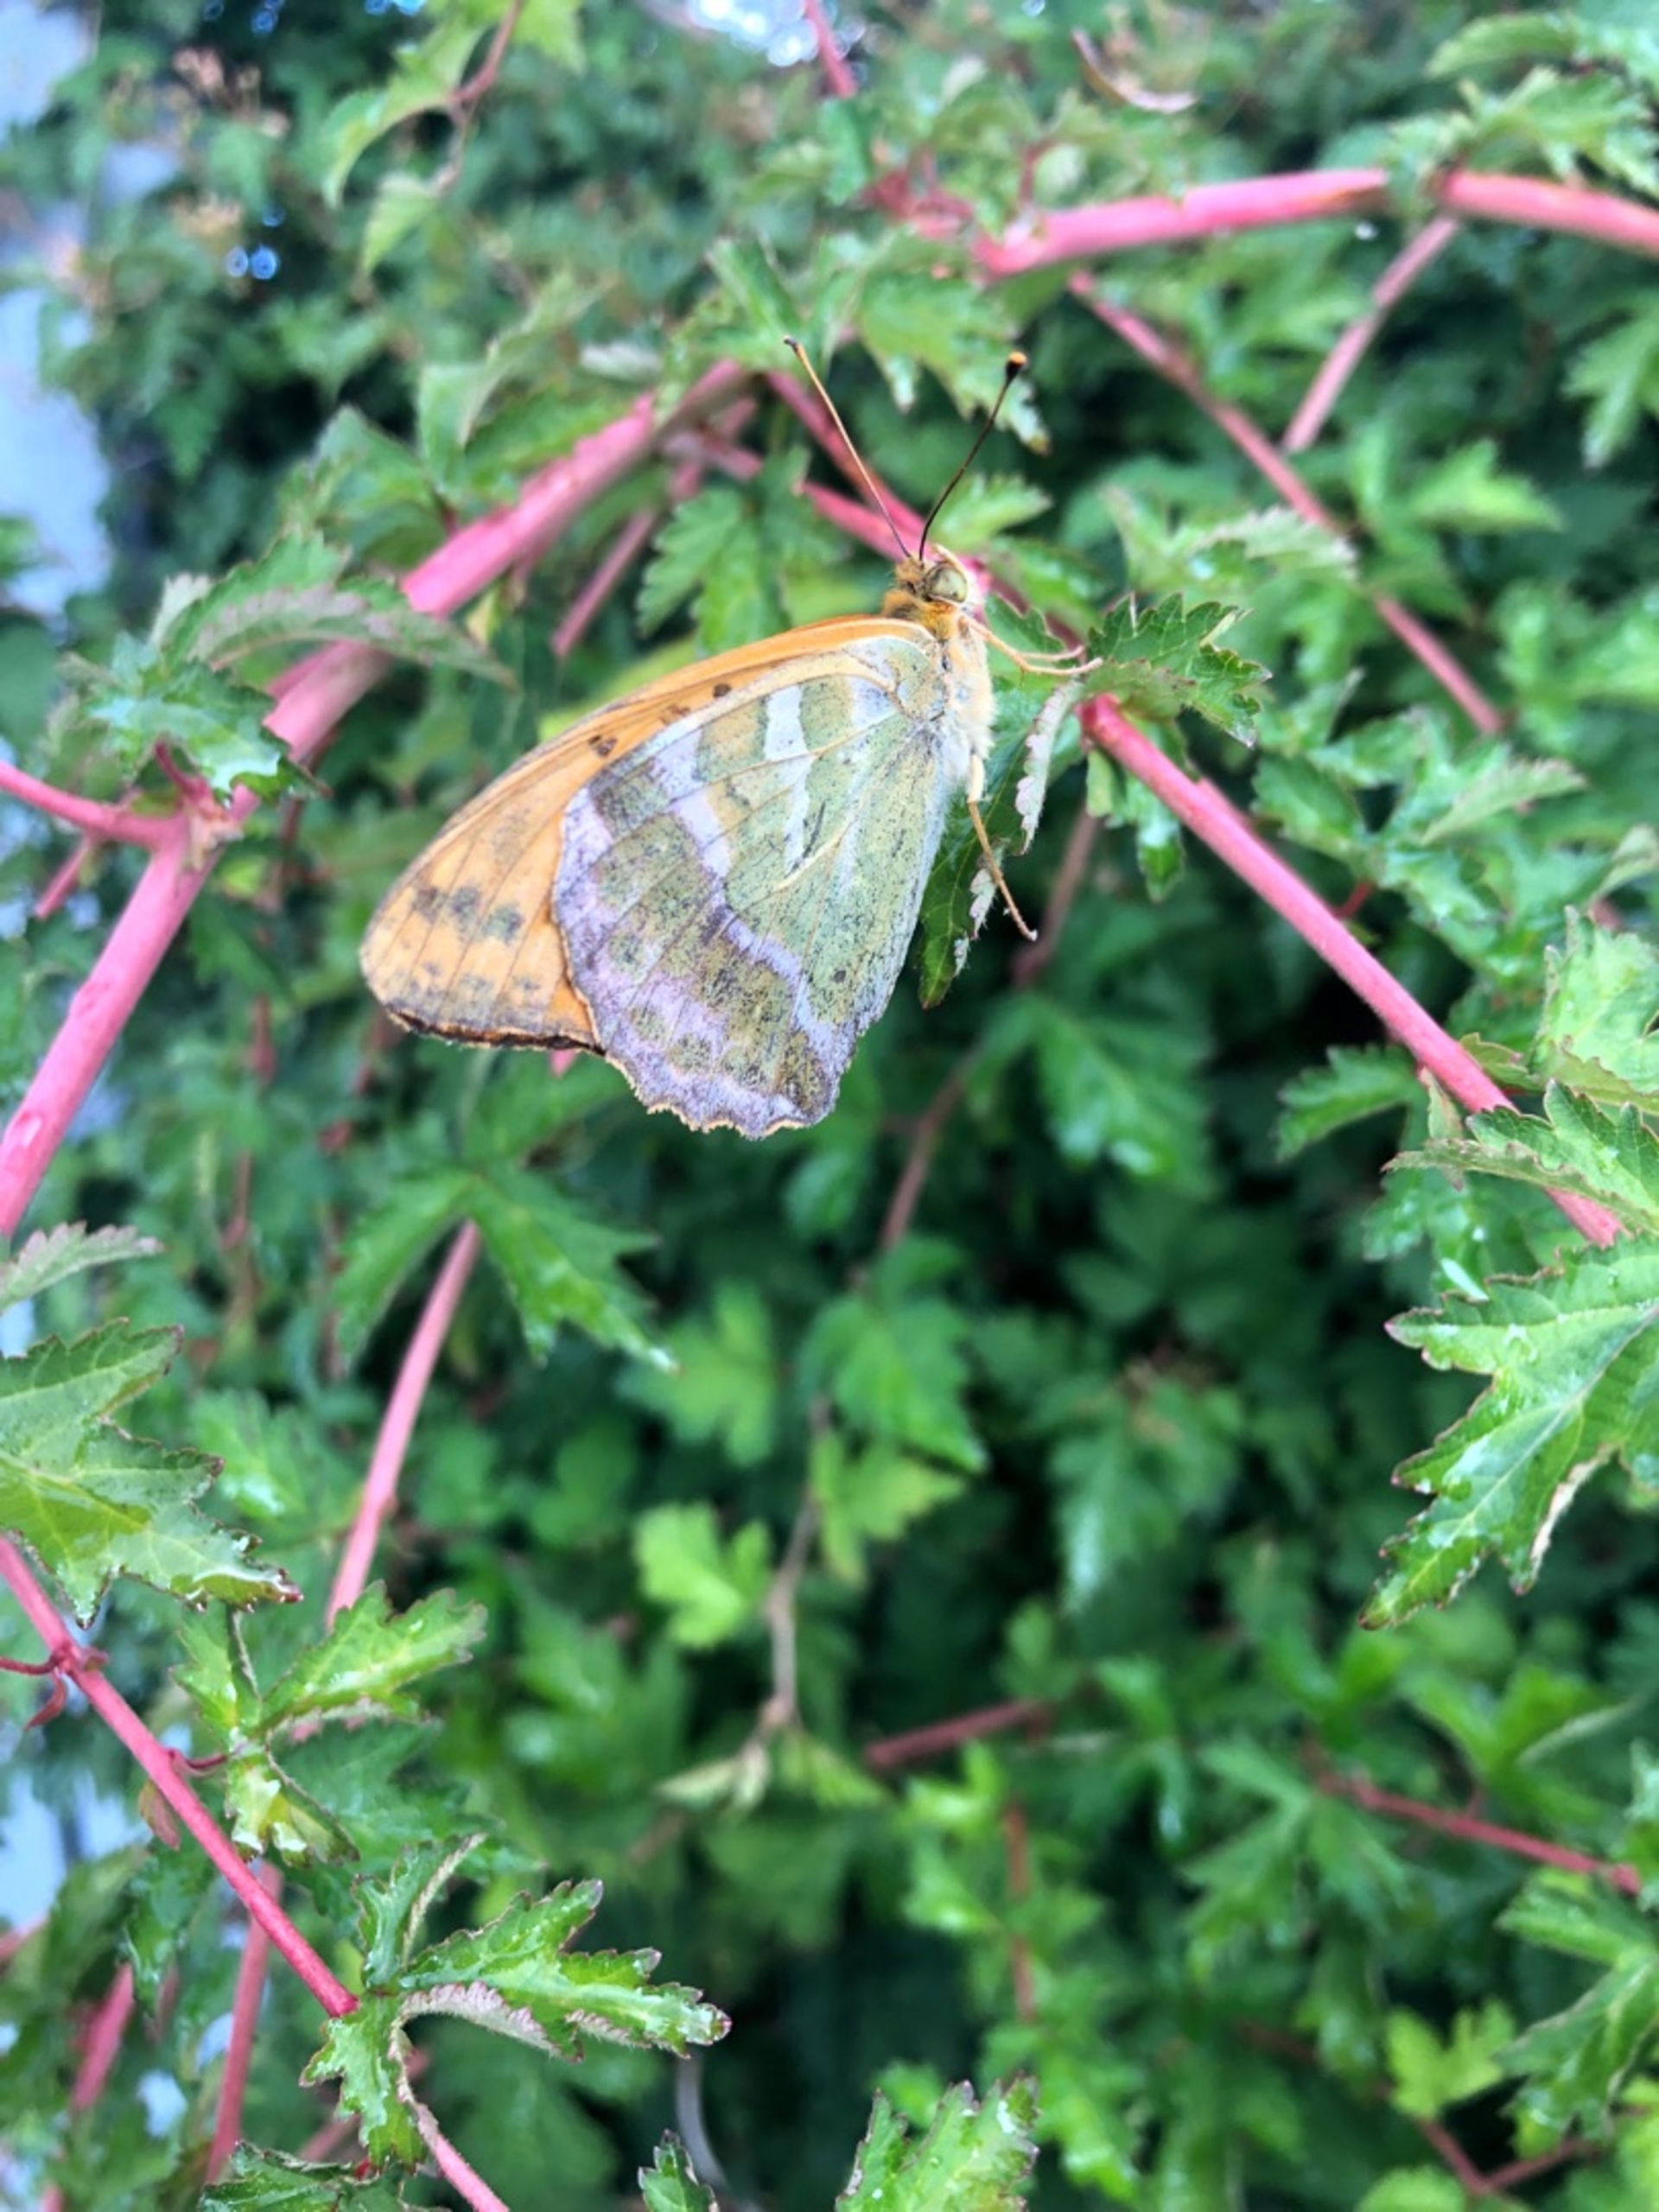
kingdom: Animalia
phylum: Arthropoda
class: Insecta
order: Lepidoptera
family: Nymphalidae
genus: Argynnis
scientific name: Argynnis paphia
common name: Kejserkåbe
